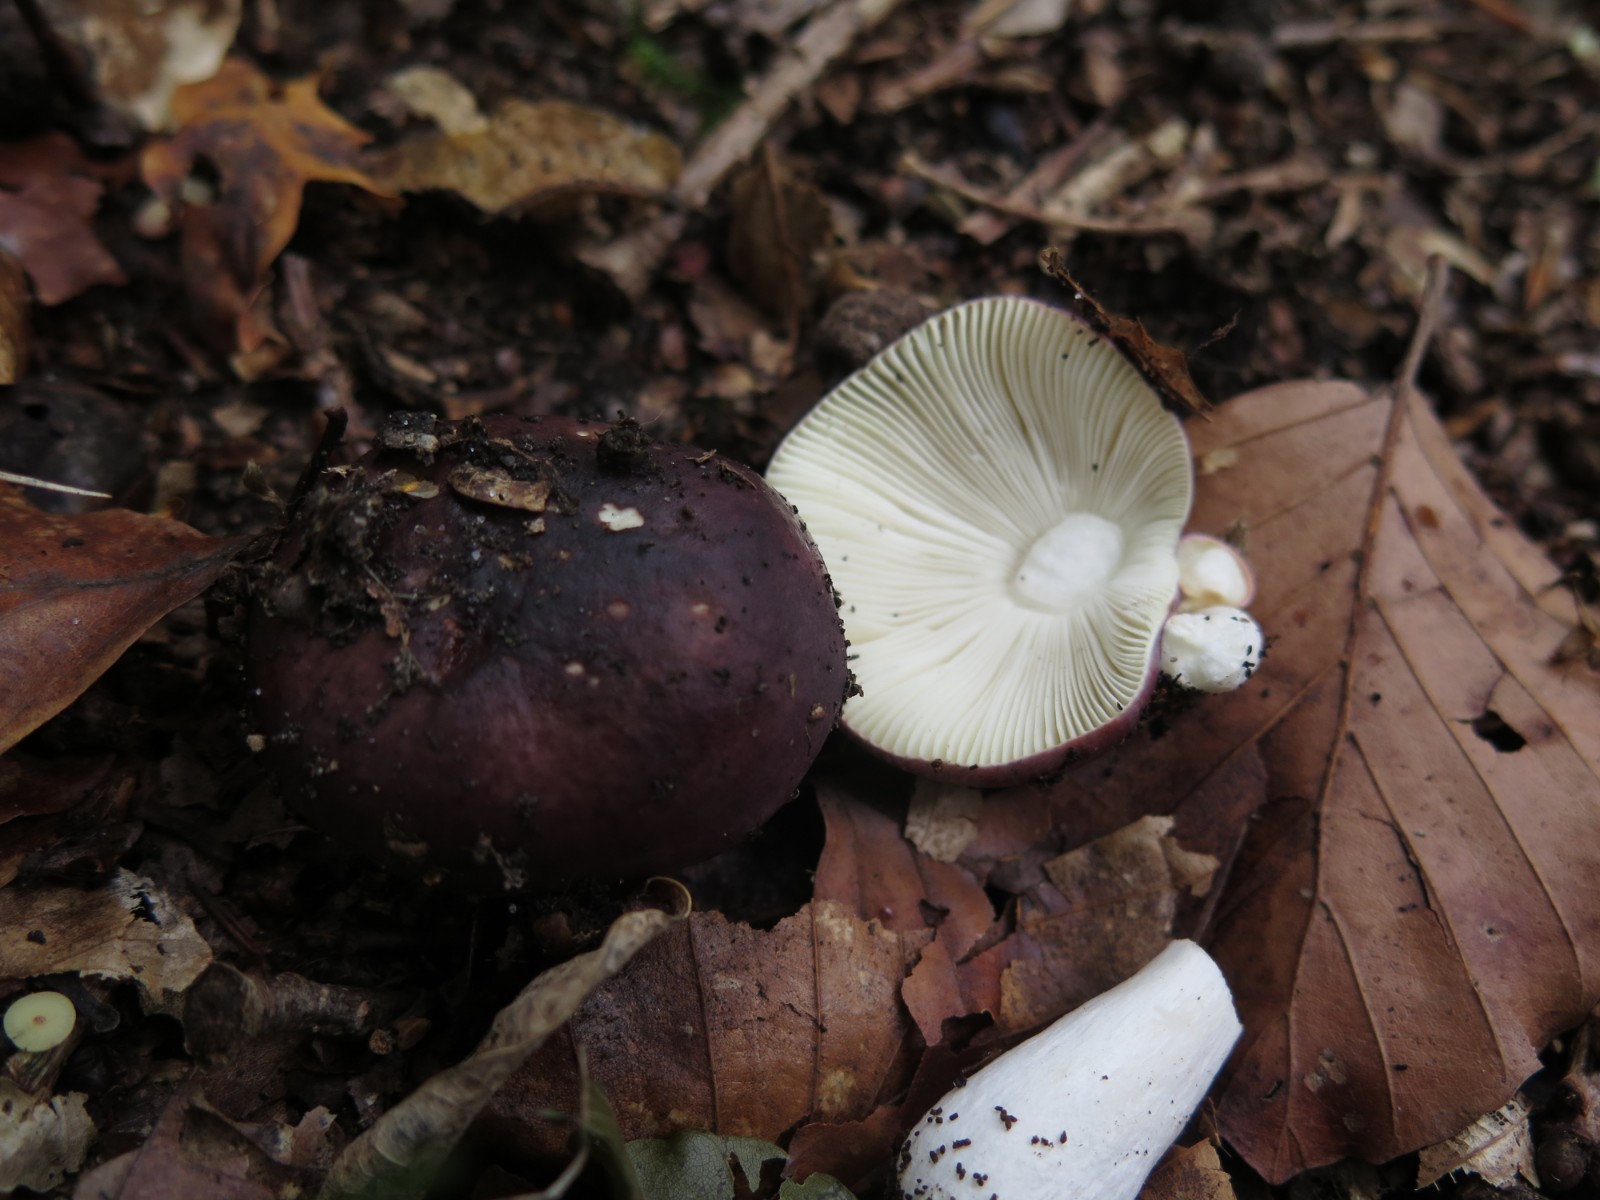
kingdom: Fungi
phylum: Basidiomycota
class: Agaricomycetes
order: Russulales
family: Russulaceae
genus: Russula
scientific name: Russula
